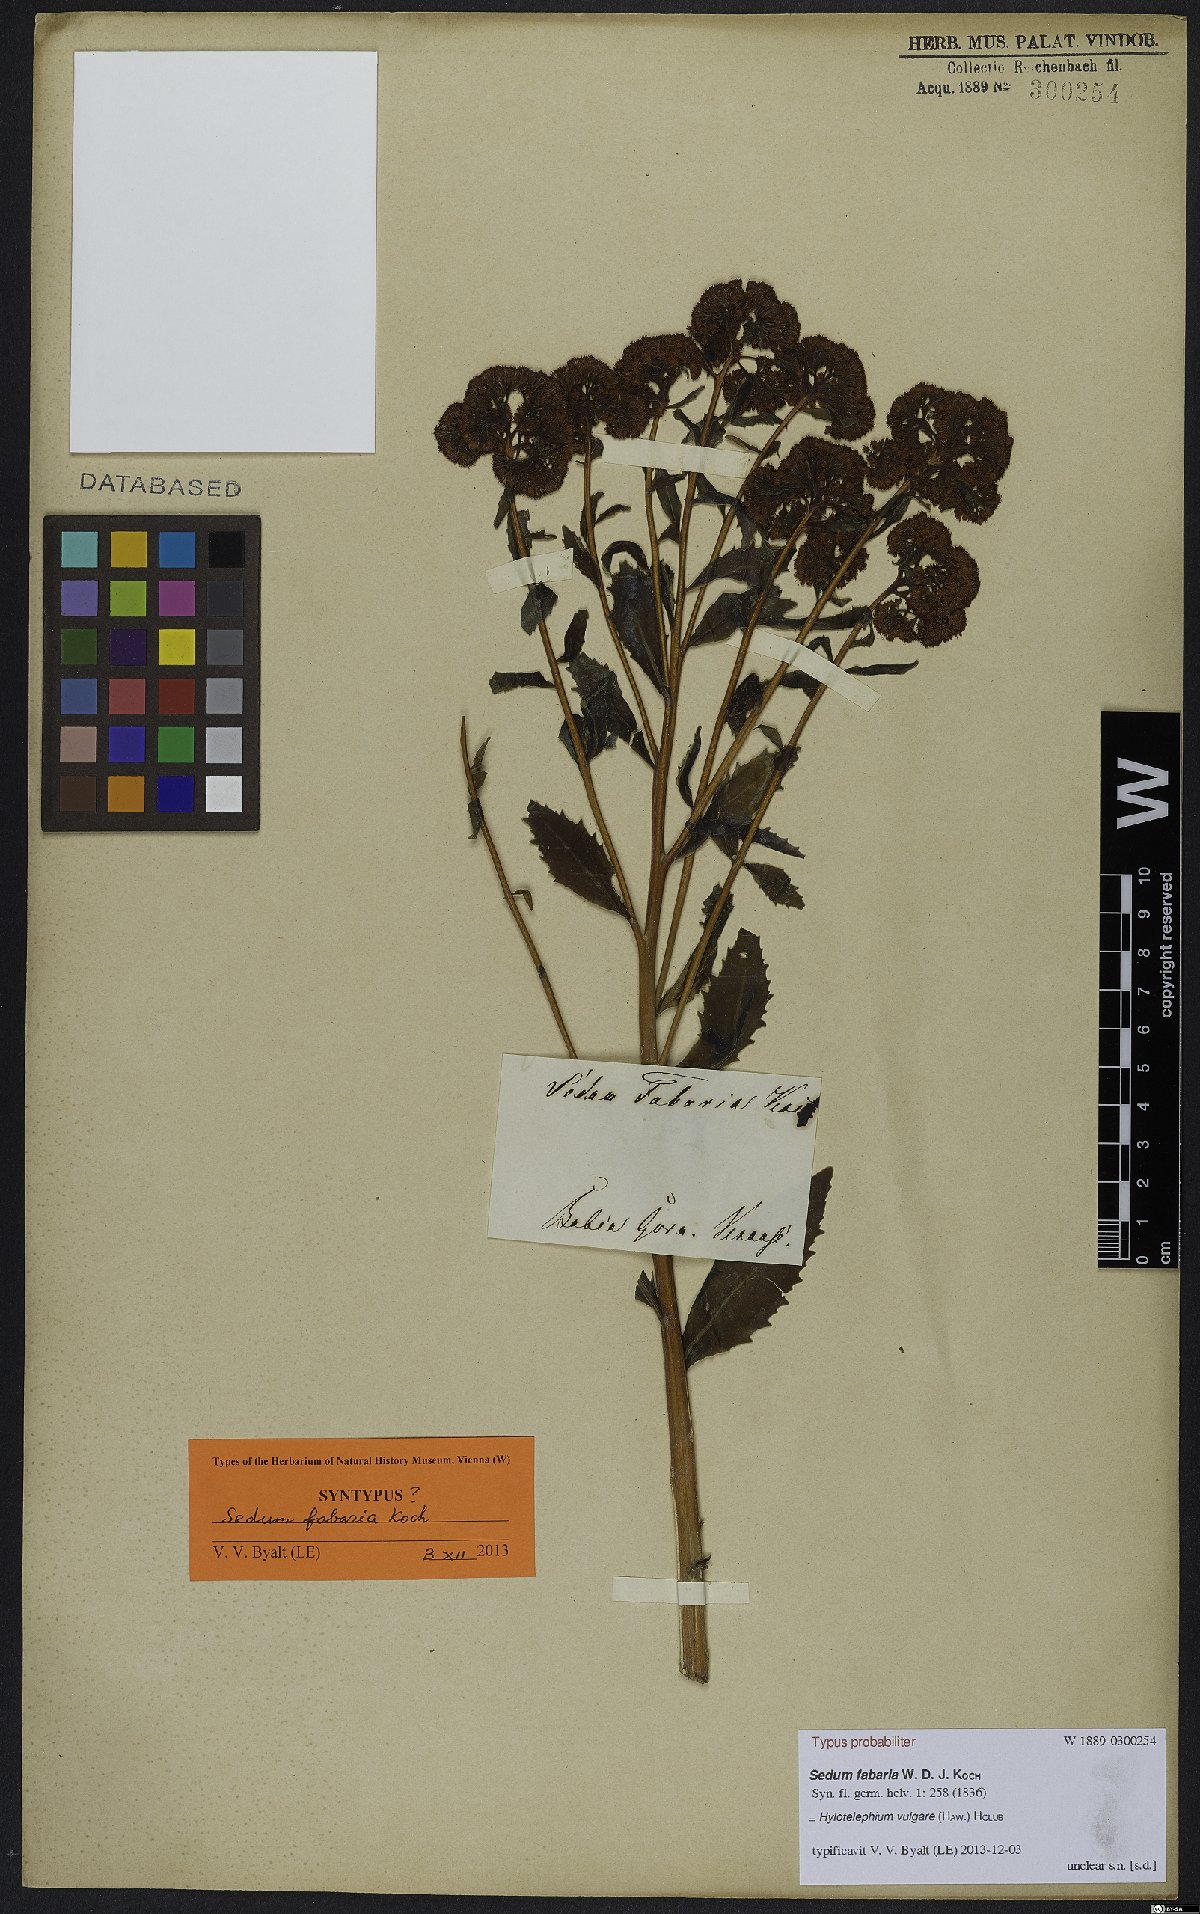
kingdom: Plantae
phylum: Tracheophyta
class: Magnoliopsida
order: Saxifragales
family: Crassulaceae
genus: Hylotelephium
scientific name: Hylotelephium vulgare
